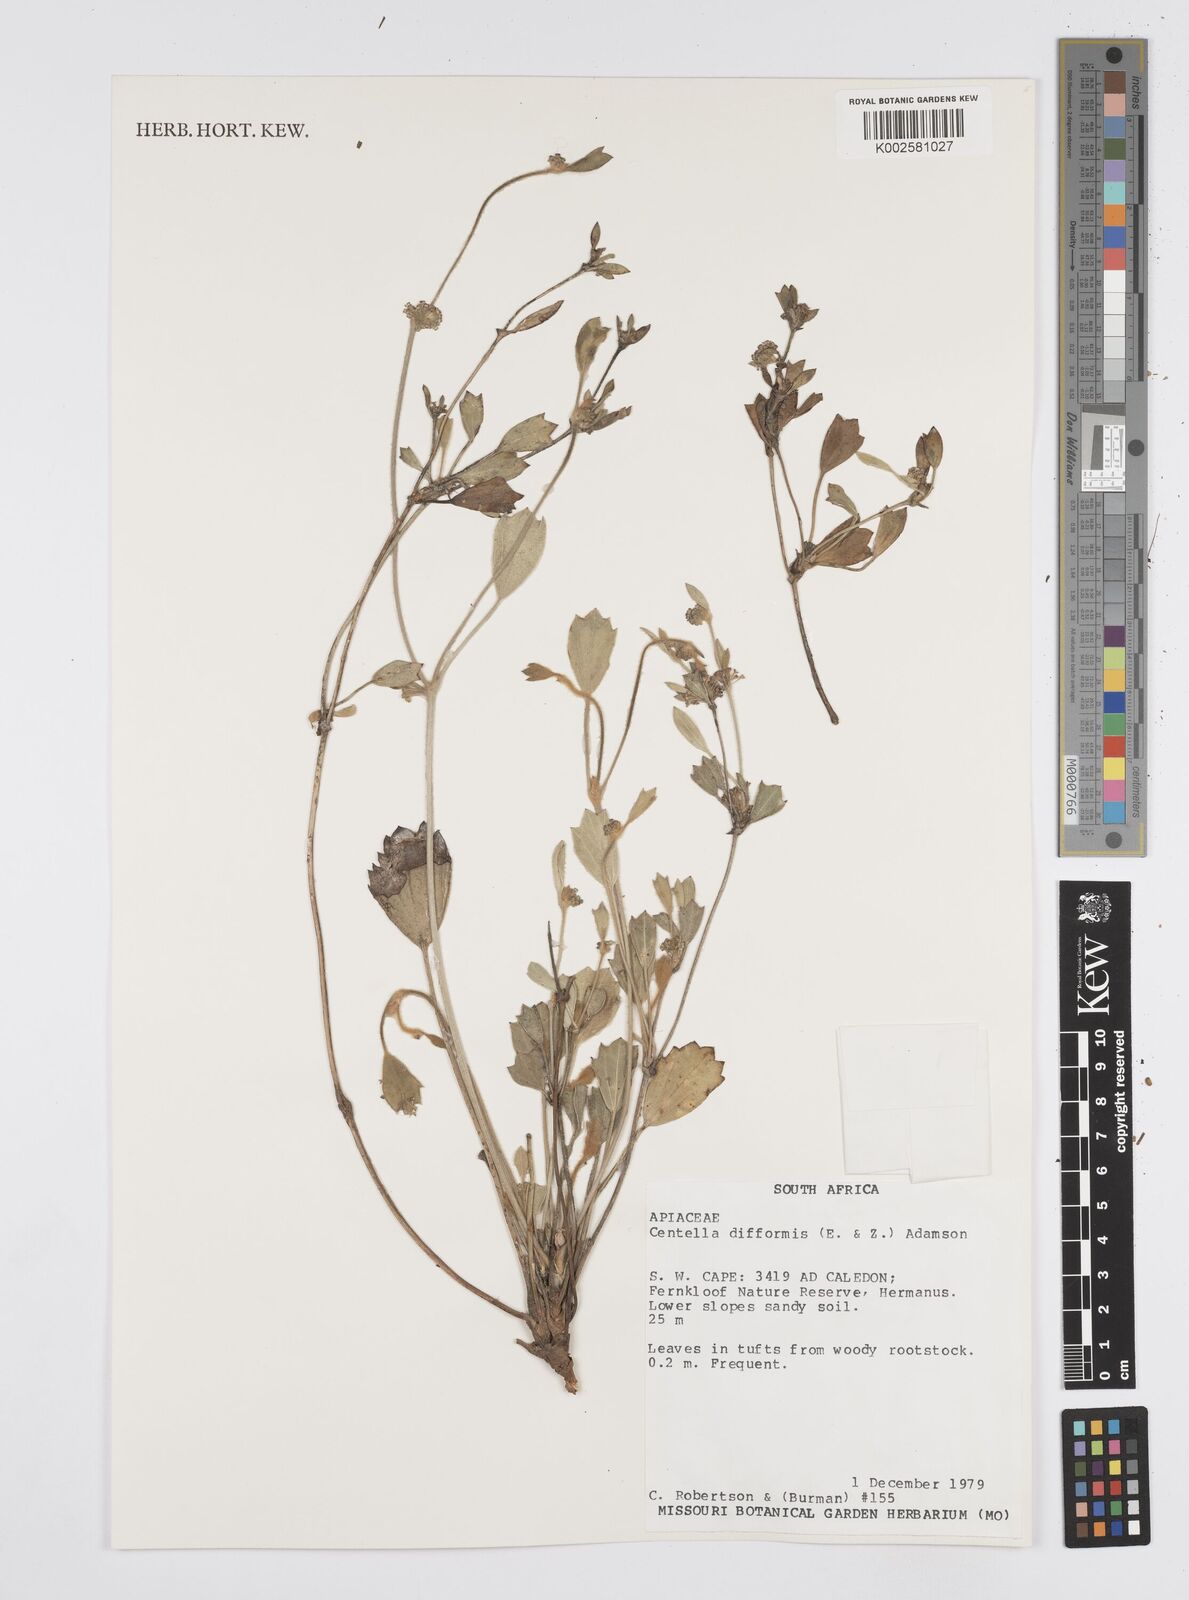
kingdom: Plantae
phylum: Tracheophyta
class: Magnoliopsida
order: Apiales
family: Apiaceae
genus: Centella
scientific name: Centella difformis
